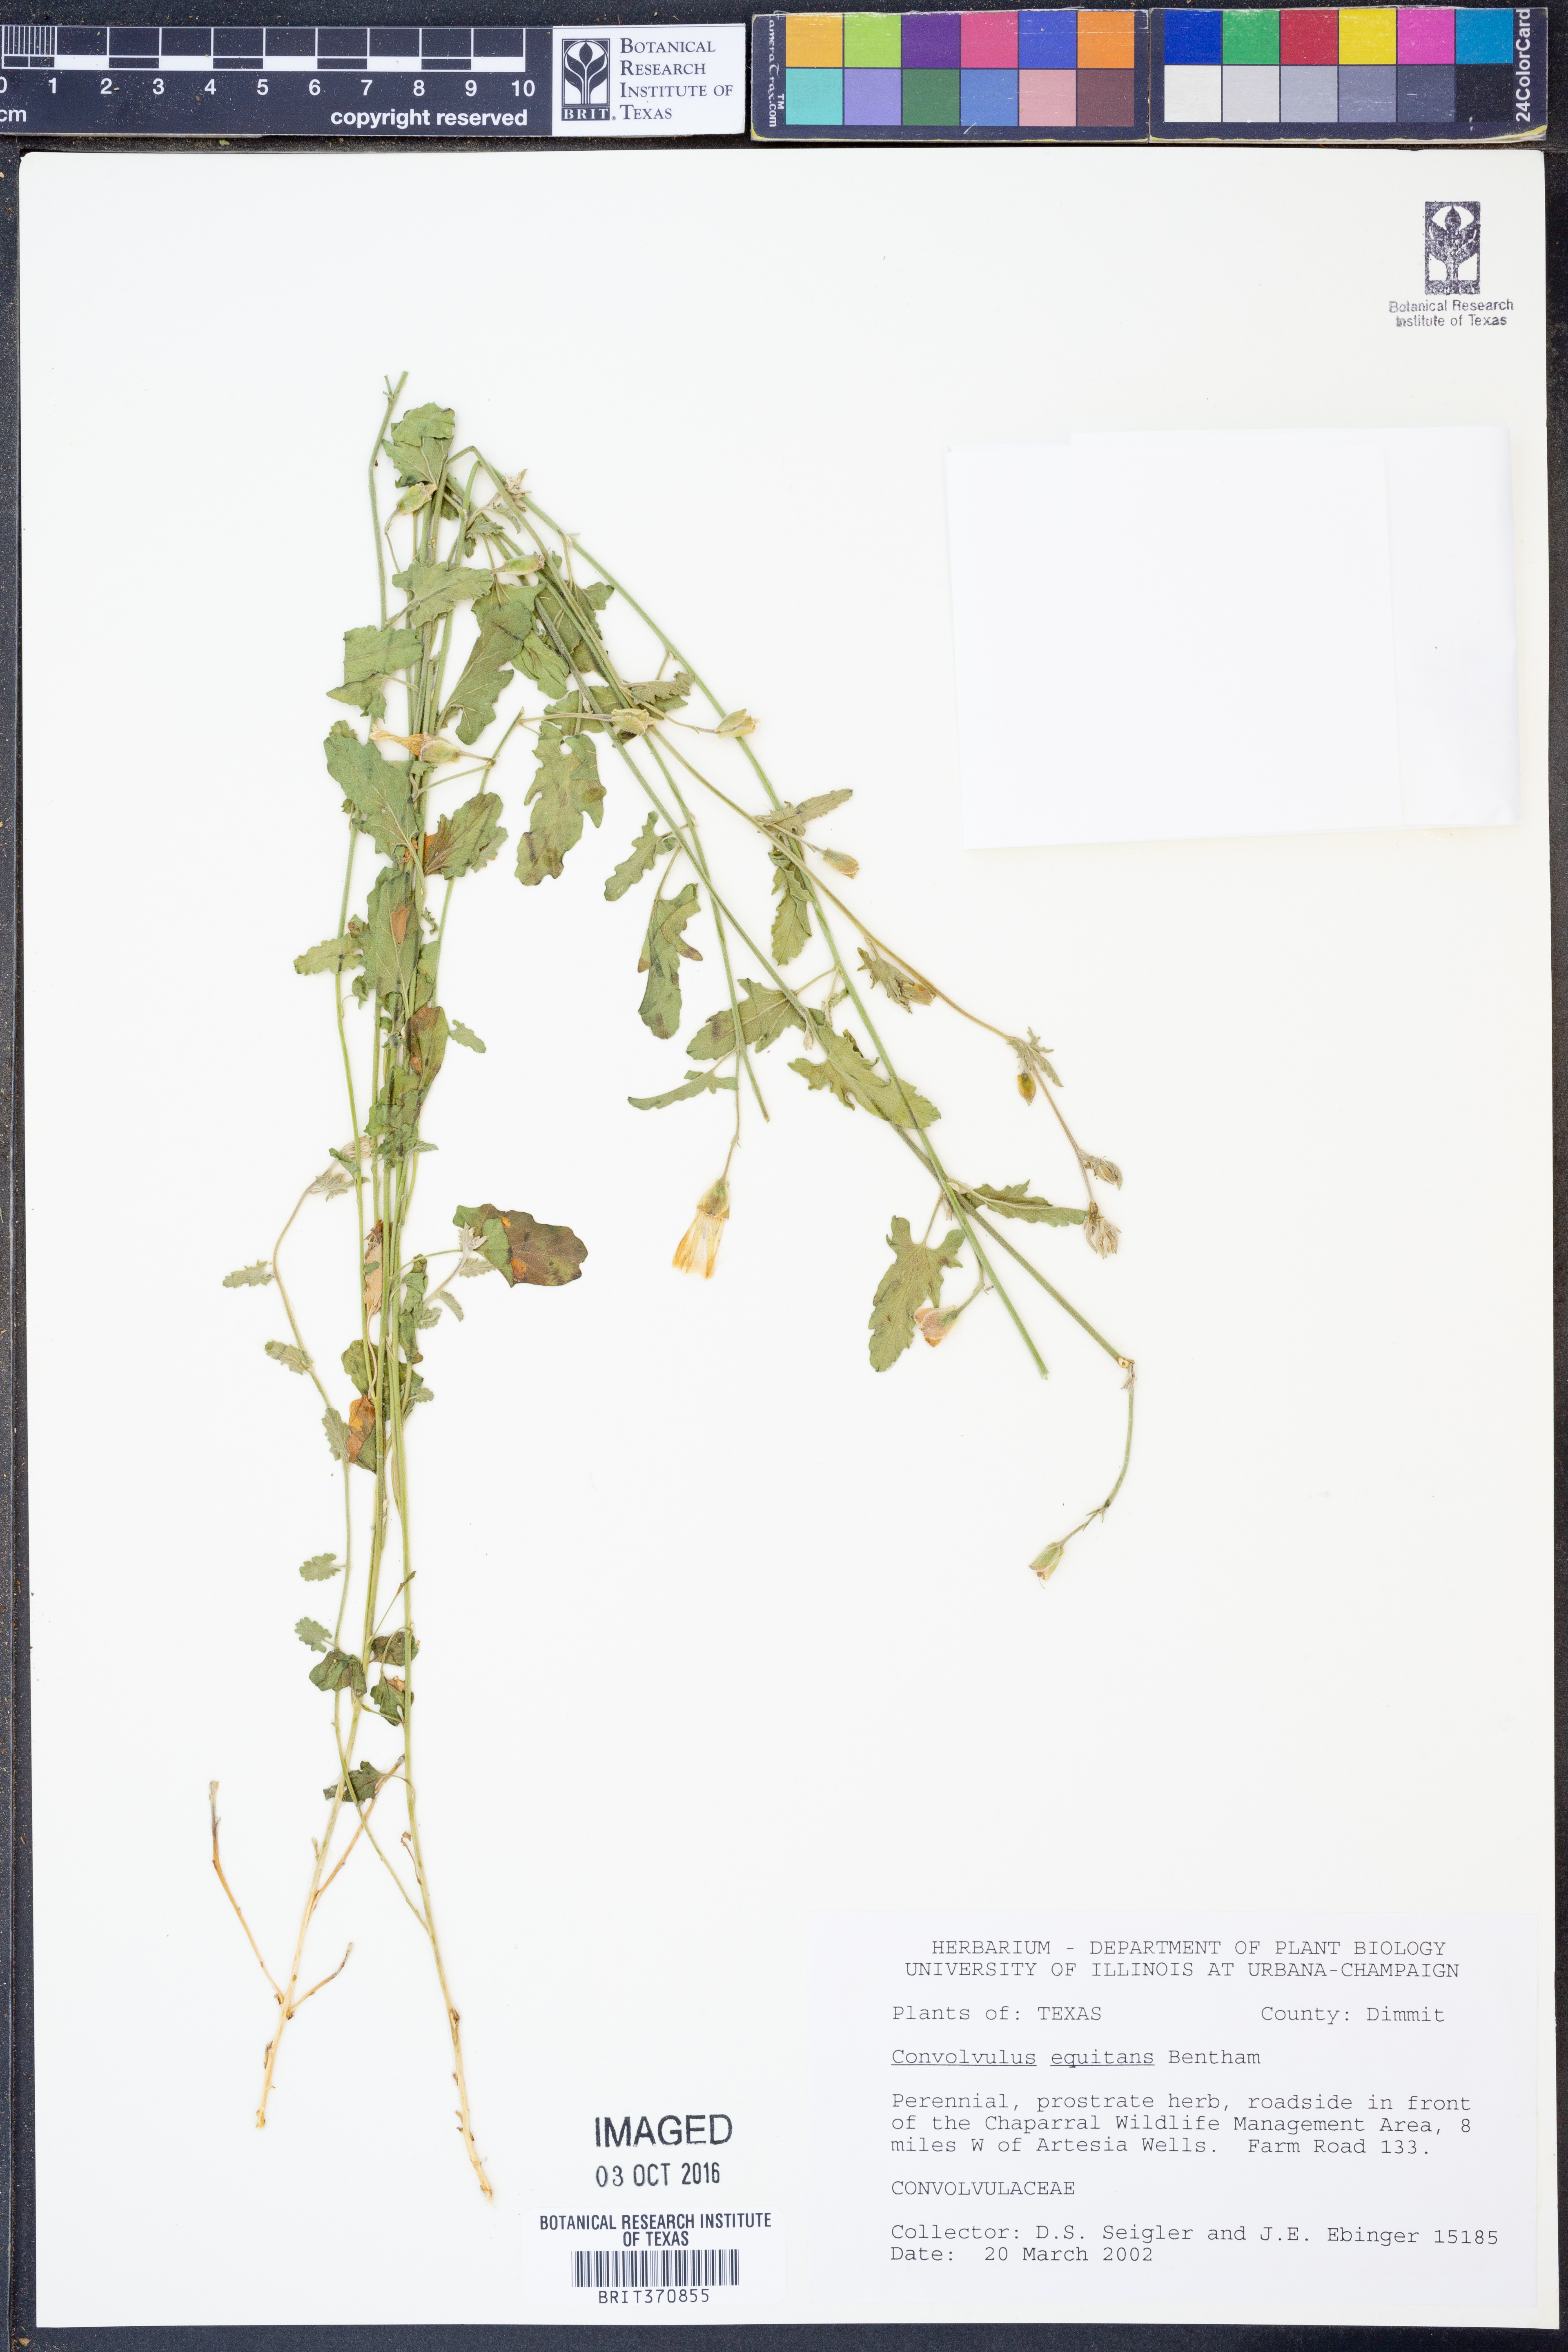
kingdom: Plantae
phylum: Tracheophyta
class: Magnoliopsida
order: Solanales
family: Convolvulaceae
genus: Convolvulus
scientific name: Convolvulus equitans
